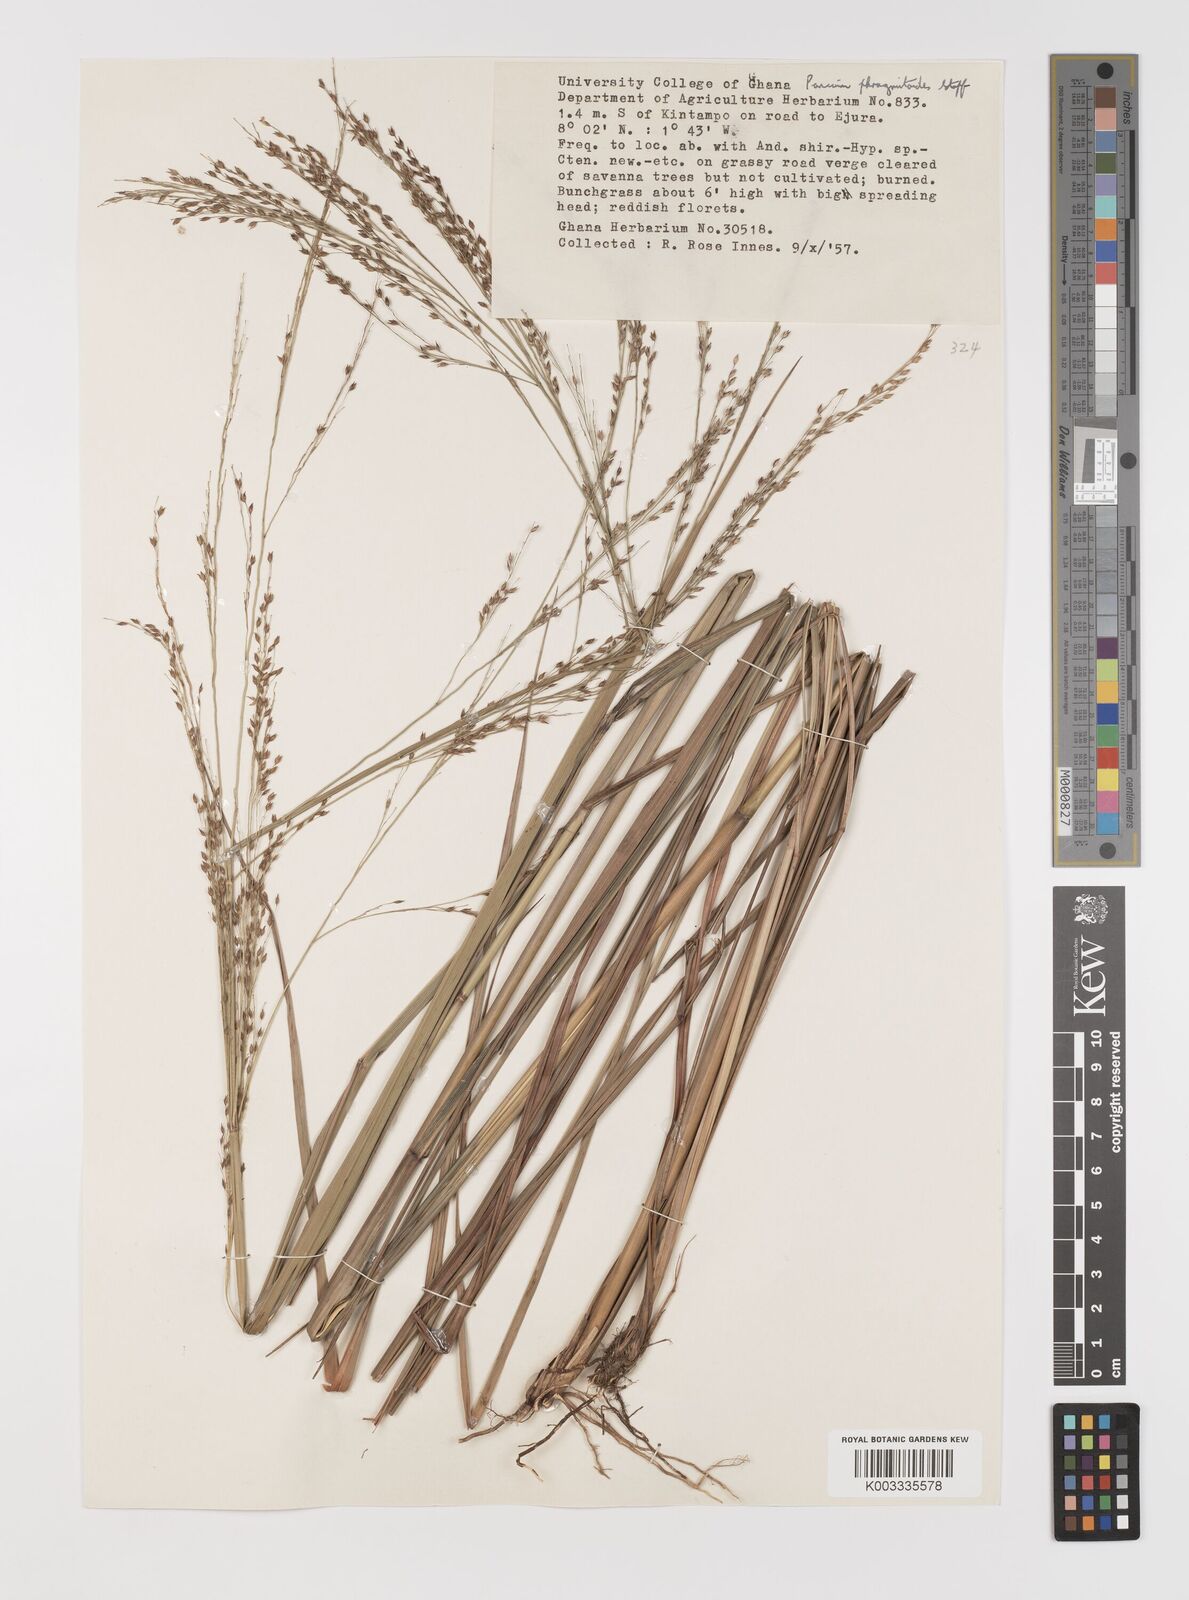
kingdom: Plantae
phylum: Tracheophyta
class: Liliopsida
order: Poales
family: Poaceae
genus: Panicum
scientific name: Panicum phragmitoides
